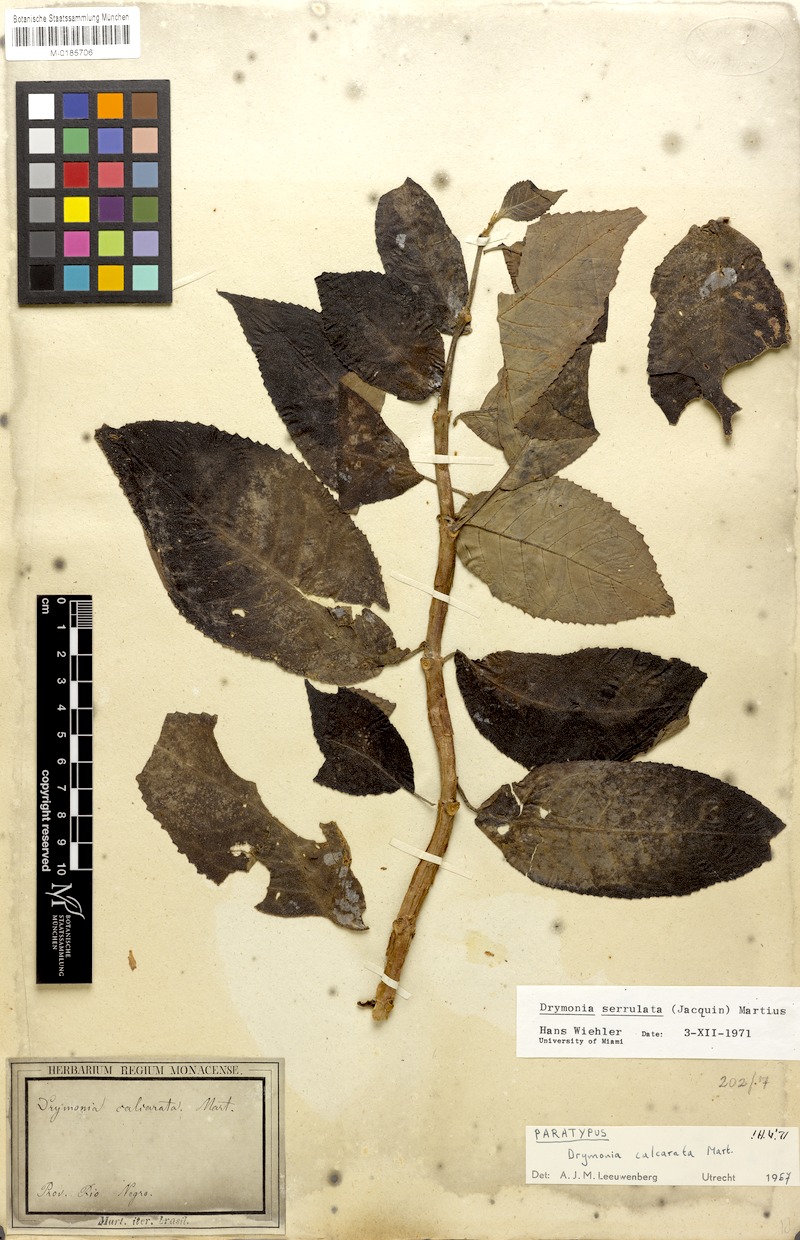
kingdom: Plantae
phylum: Tracheophyta
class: Magnoliopsida
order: Lamiales
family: Gesneriaceae
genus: Drymonia
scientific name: Drymonia serrulata
